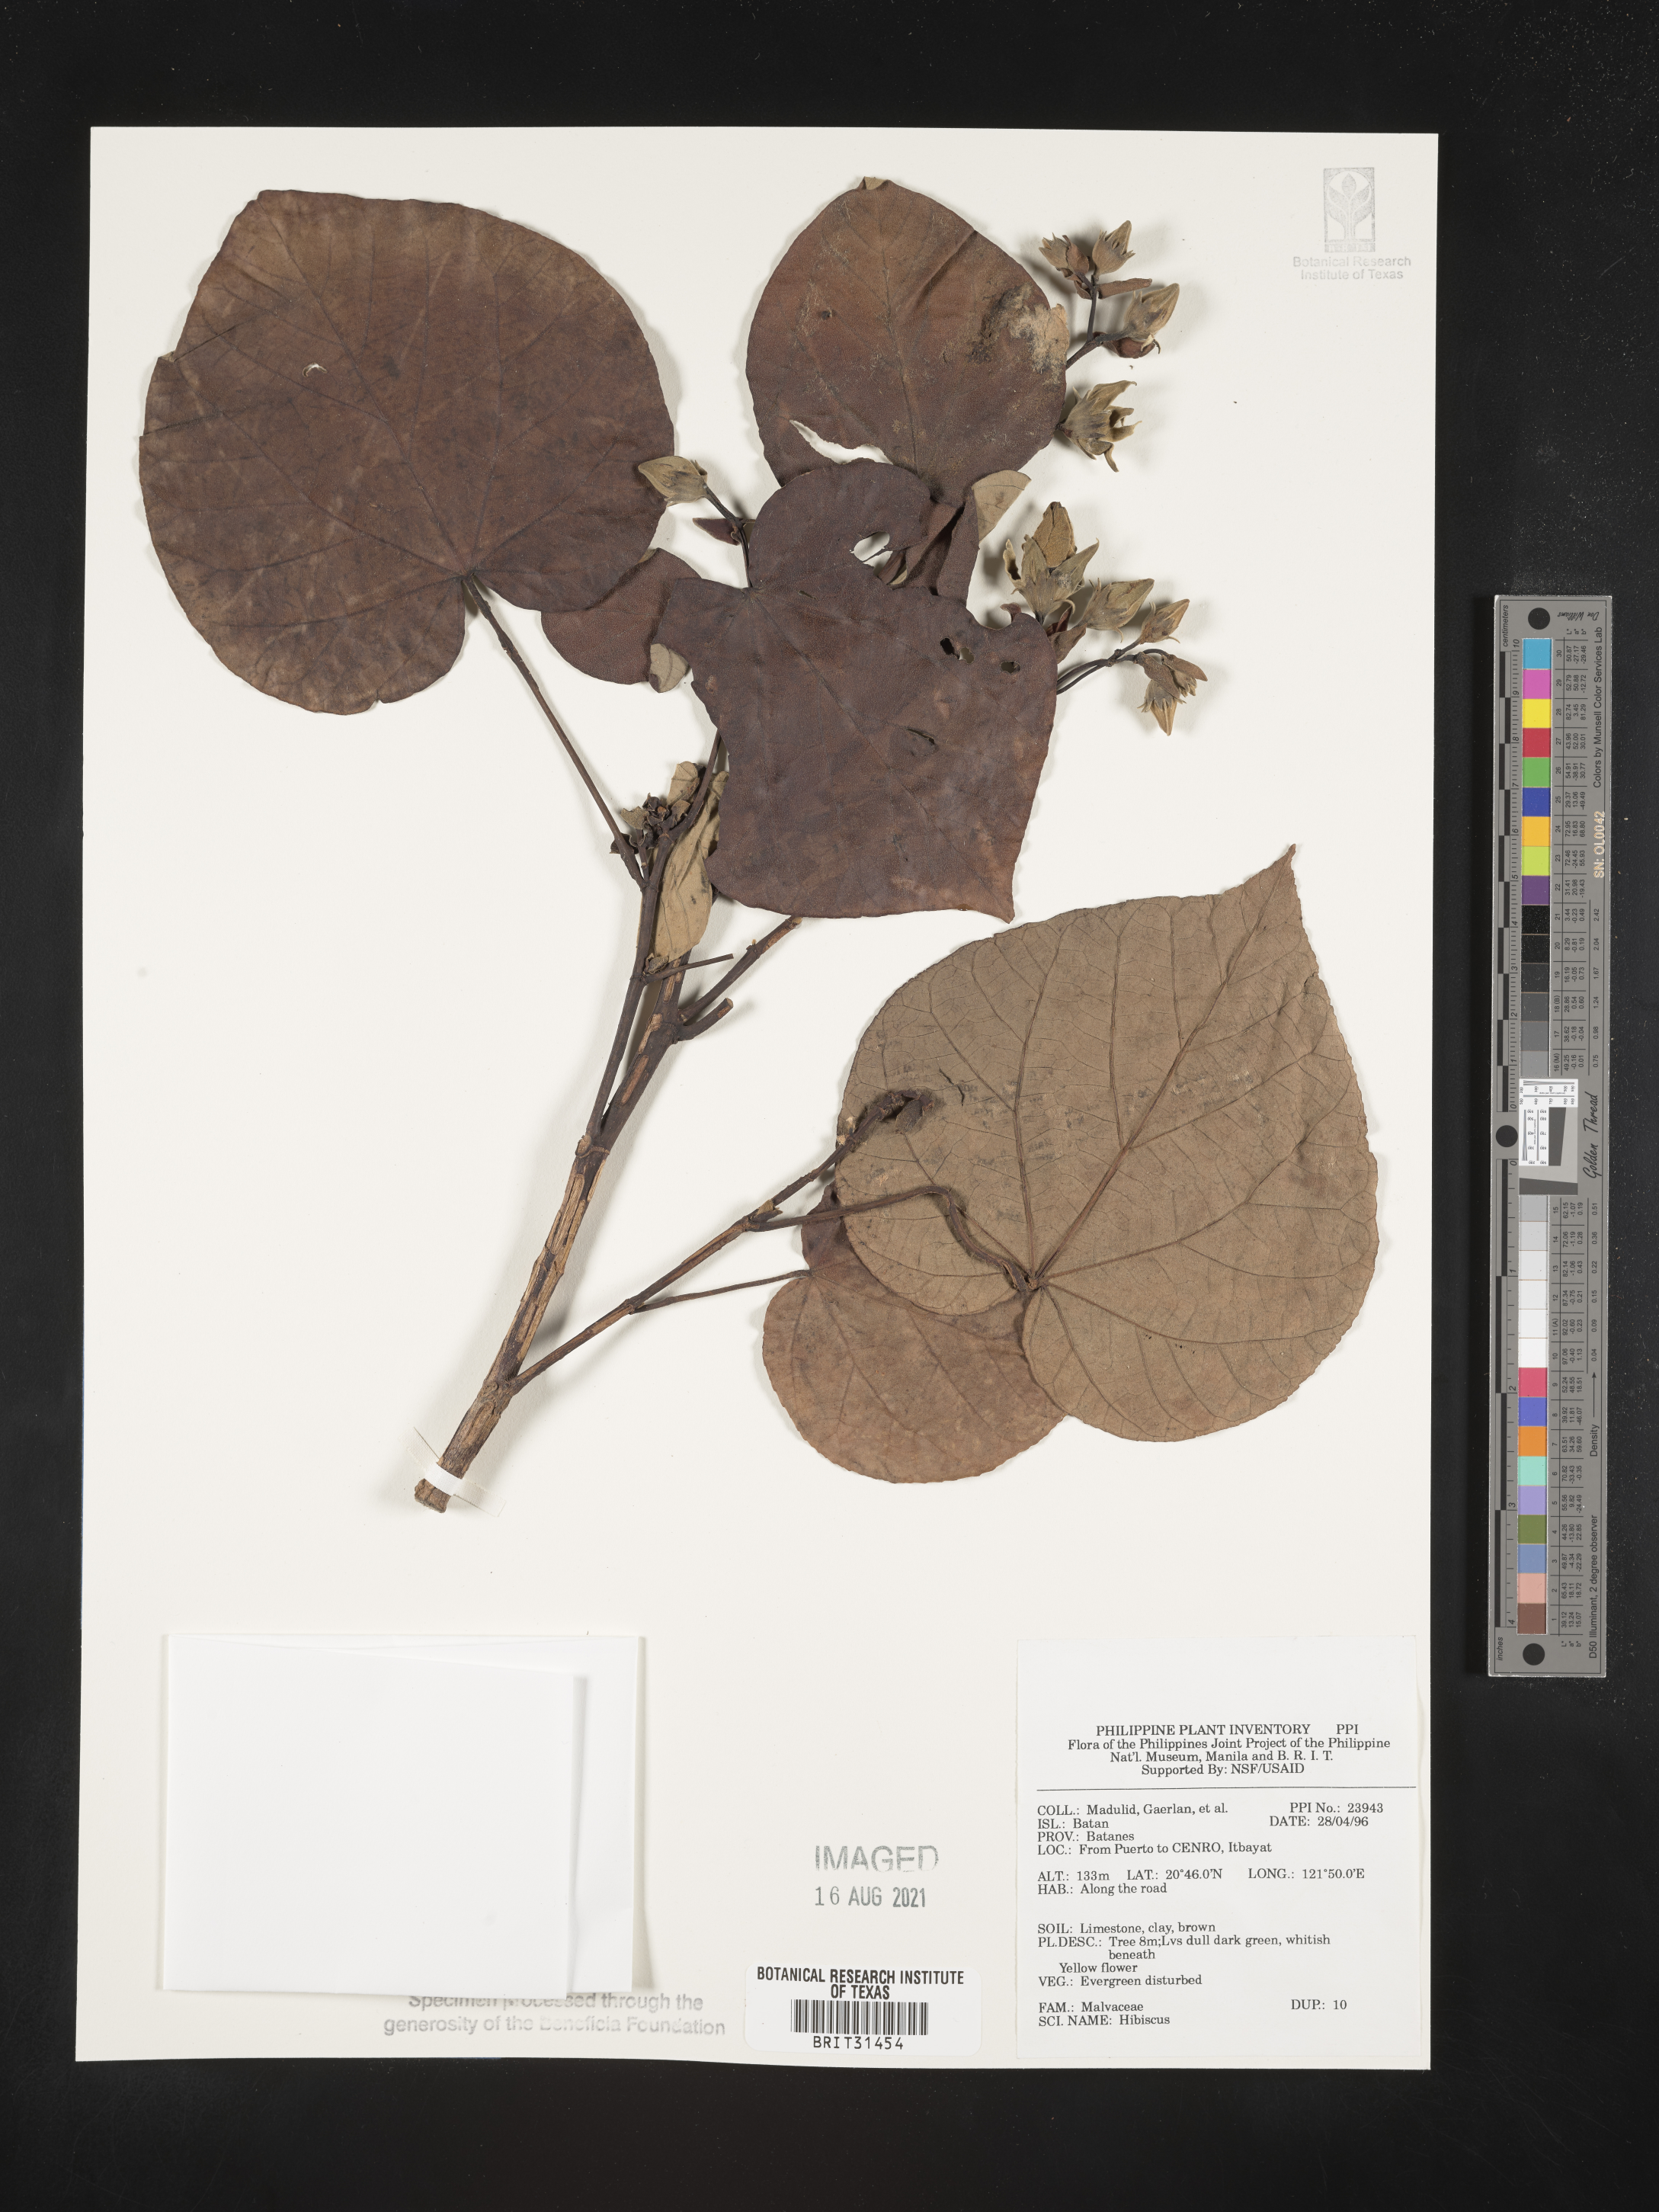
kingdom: Plantae
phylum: Tracheophyta
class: Magnoliopsida
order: Malvales
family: Malvaceae
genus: Hibiscus
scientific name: Hibiscus
